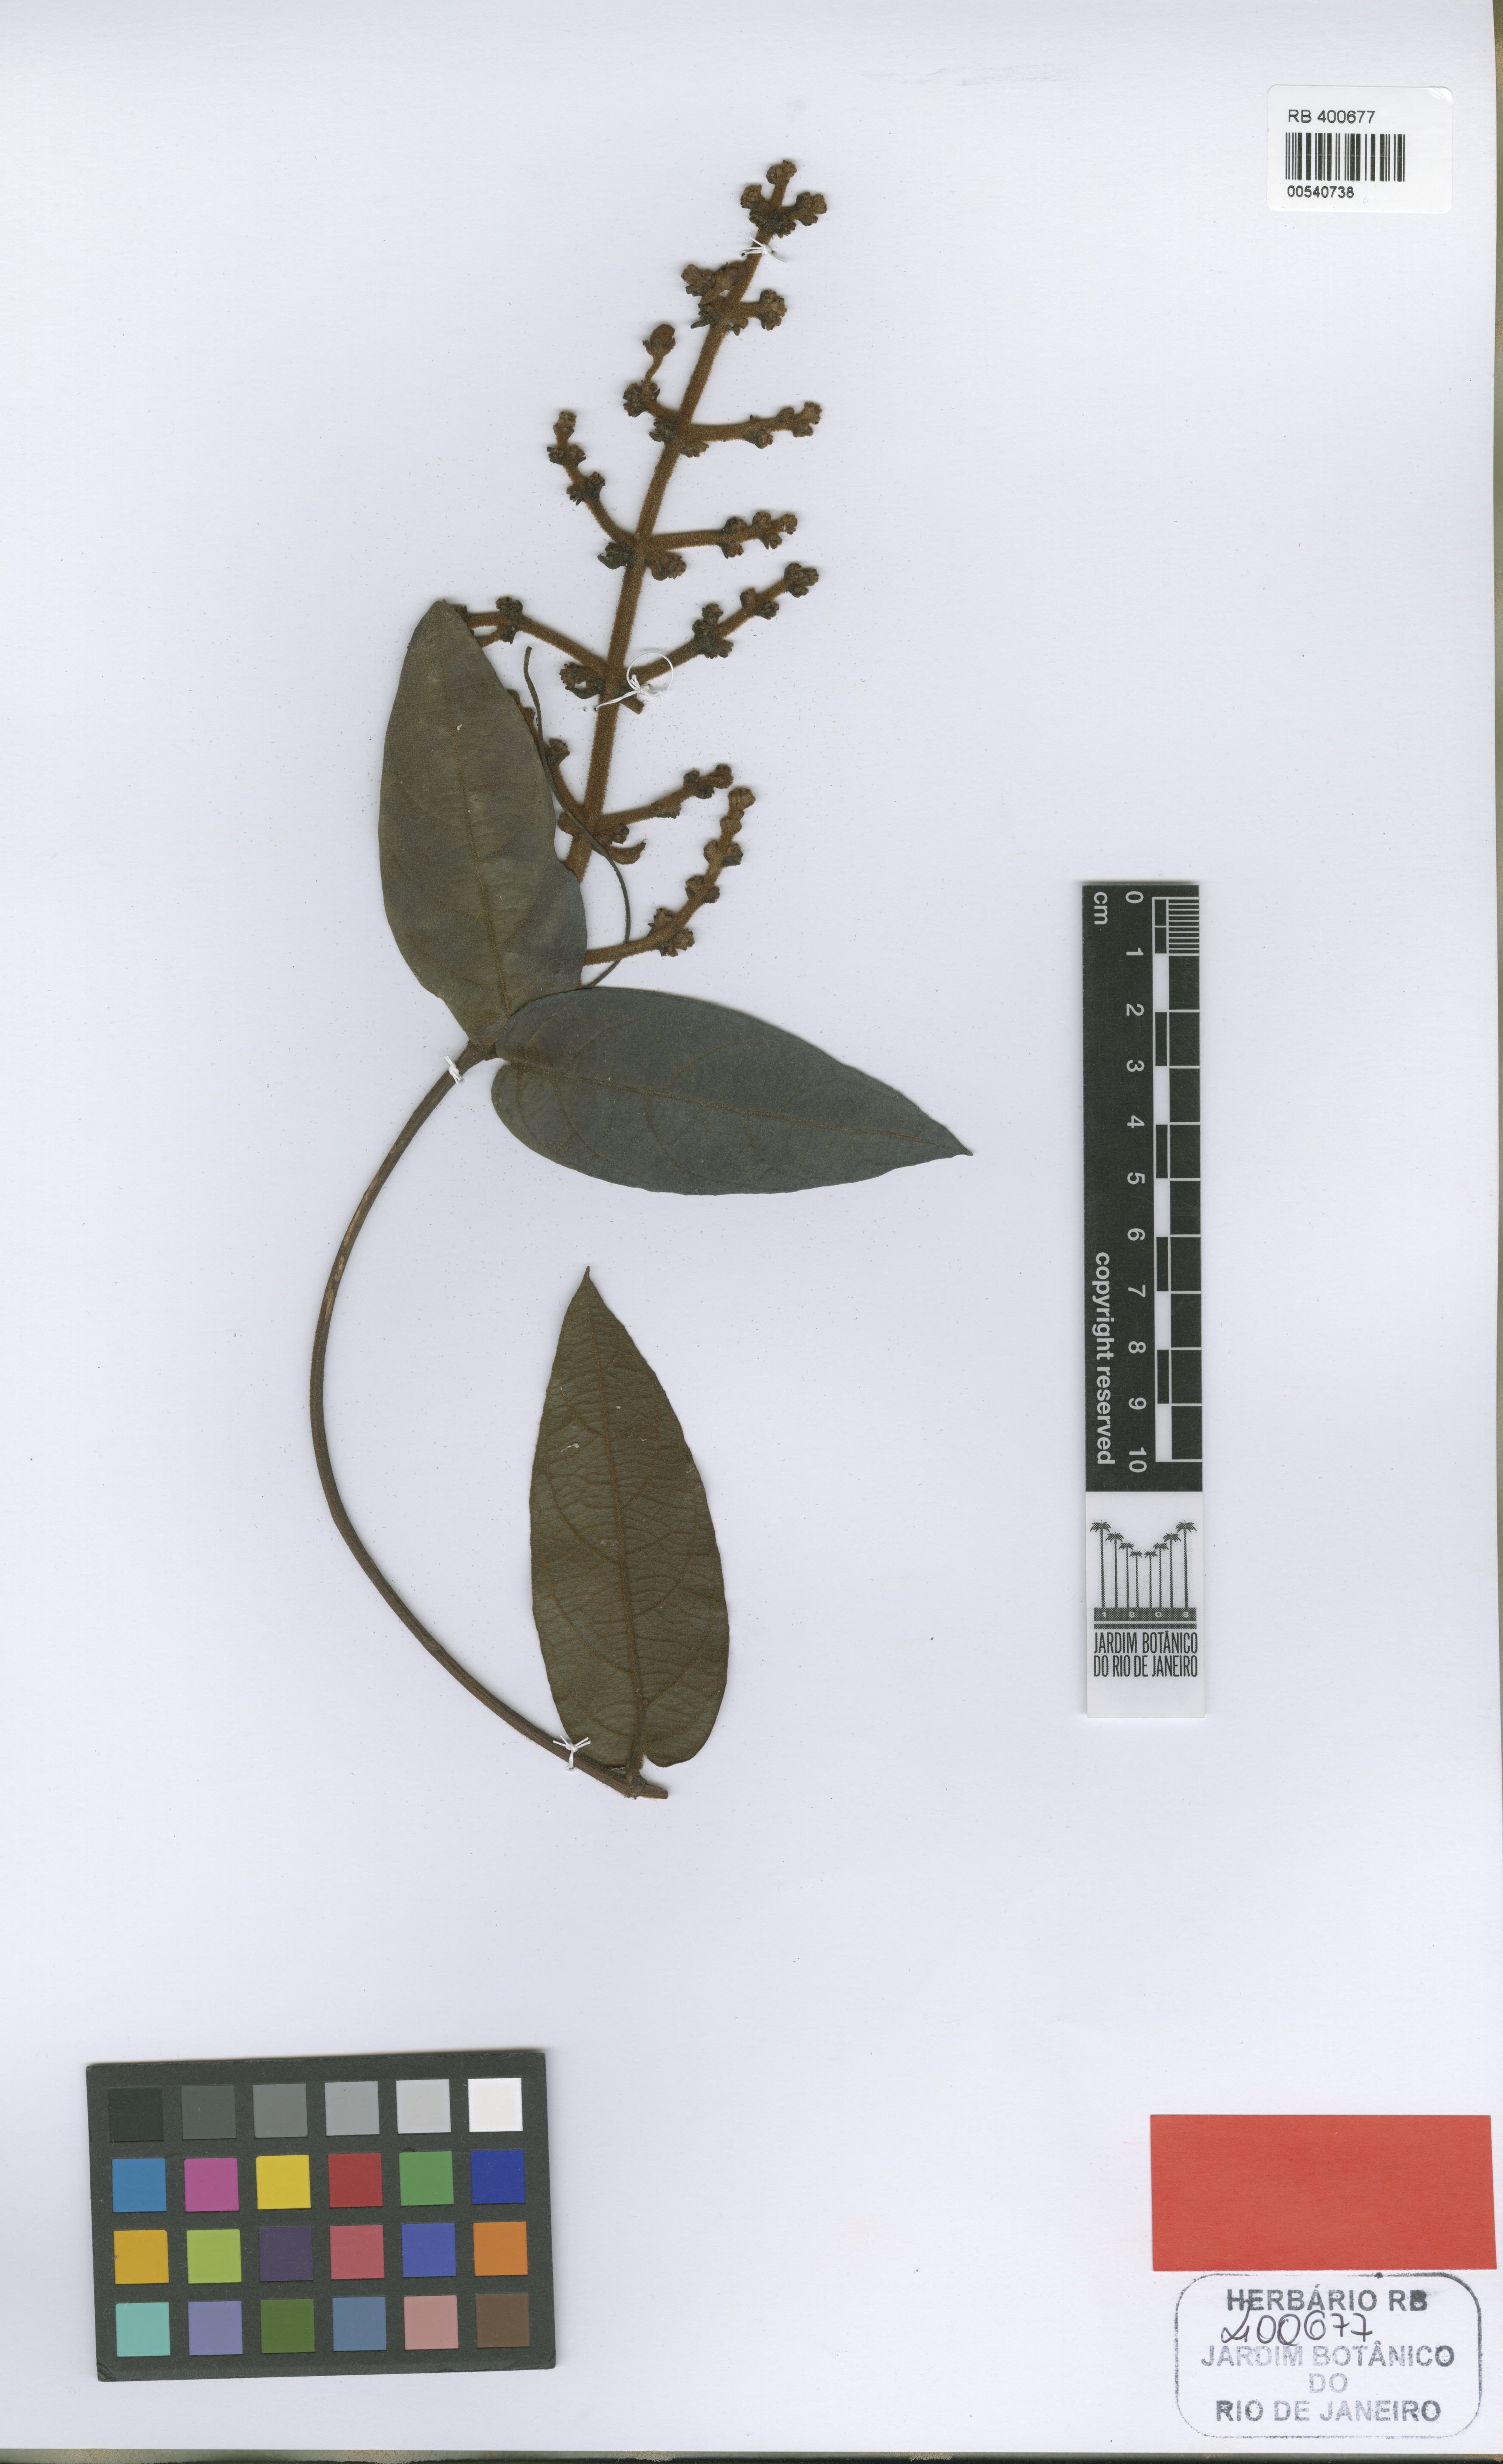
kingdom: Plantae
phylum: Tracheophyta
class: Magnoliopsida
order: Malpighiales
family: Malpighiaceae
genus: Heteropterys
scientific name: Heteropterys jardimii
